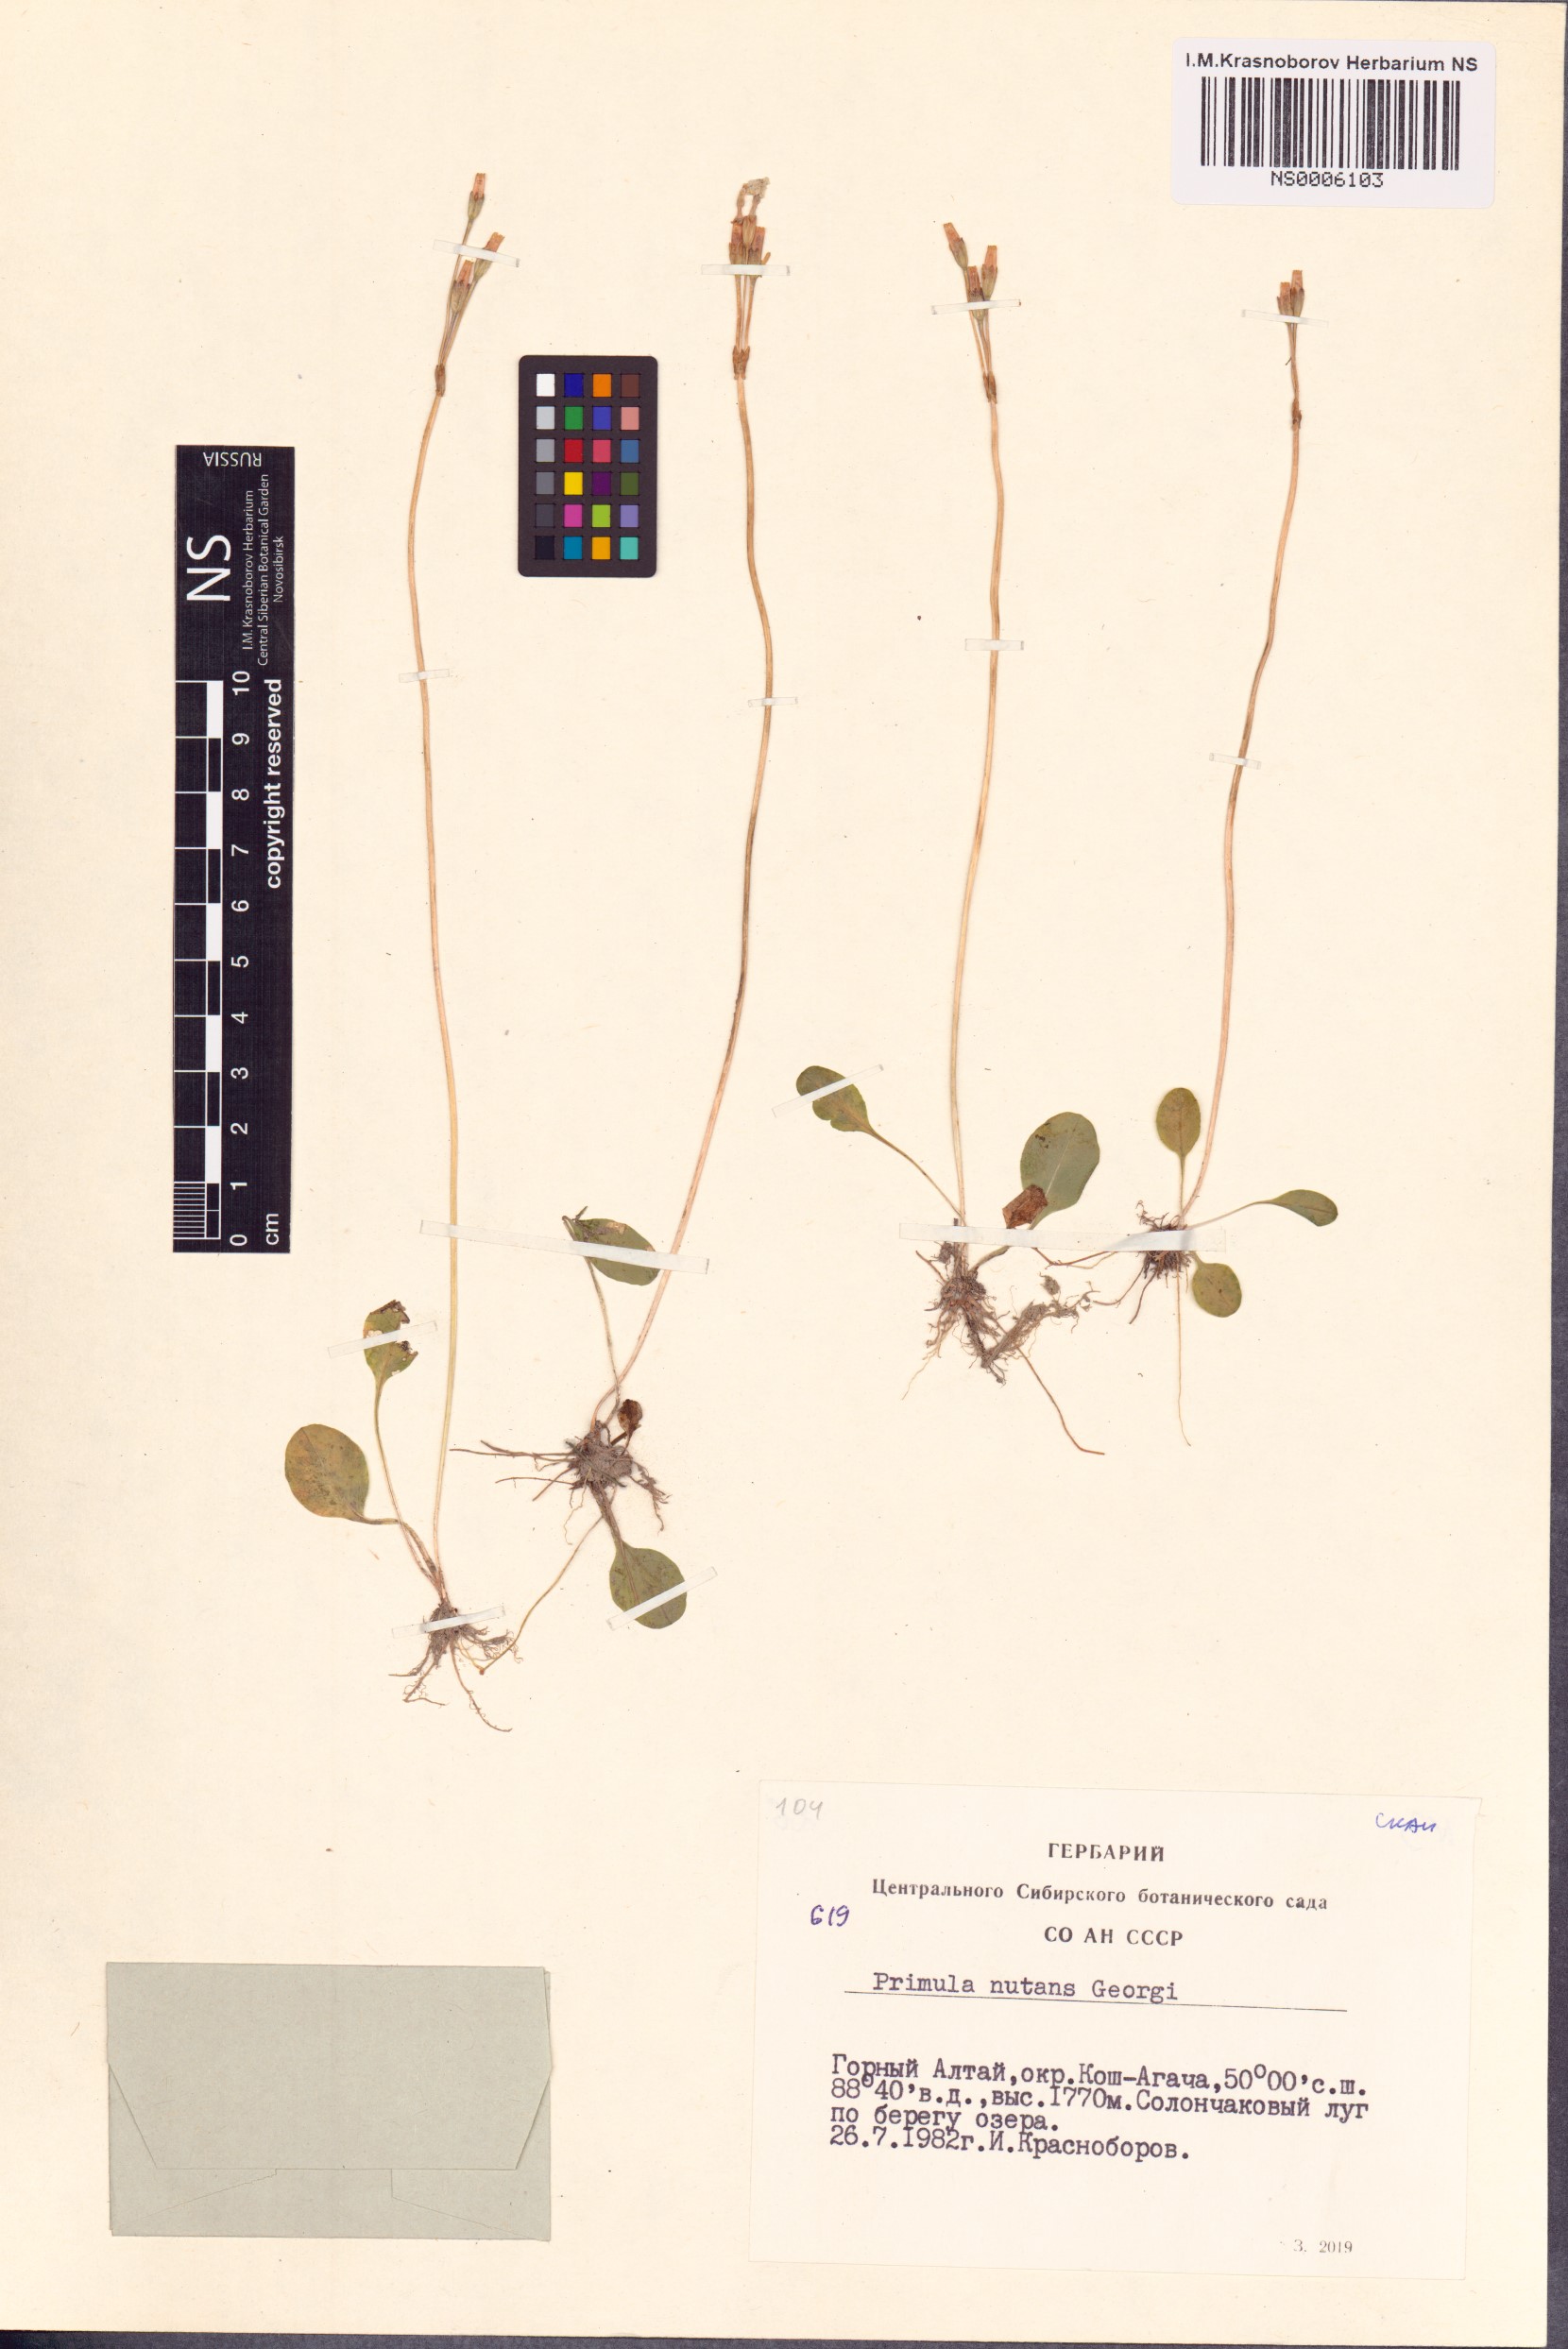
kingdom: Plantae
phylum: Tracheophyta
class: Magnoliopsida
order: Ericales
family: Primulaceae
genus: Primula
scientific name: Primula nutans
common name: Siberian primrose
